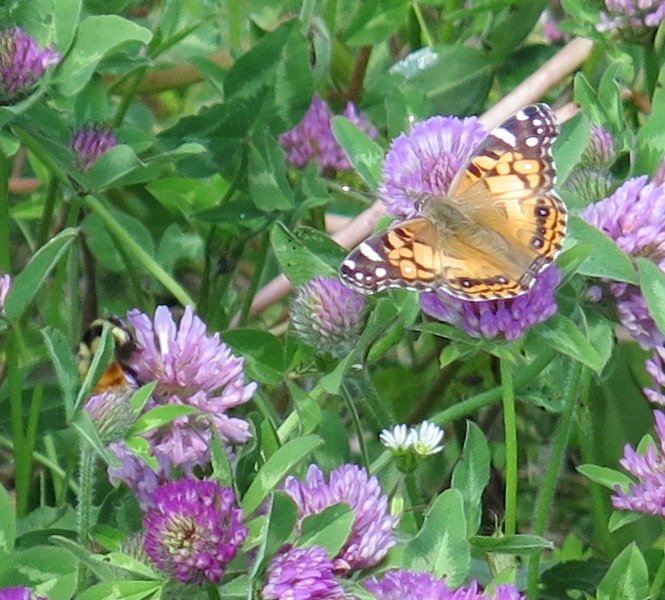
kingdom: Animalia
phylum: Arthropoda
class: Insecta
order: Lepidoptera
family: Nymphalidae
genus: Vanessa
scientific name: Vanessa virginiensis
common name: American Lady
